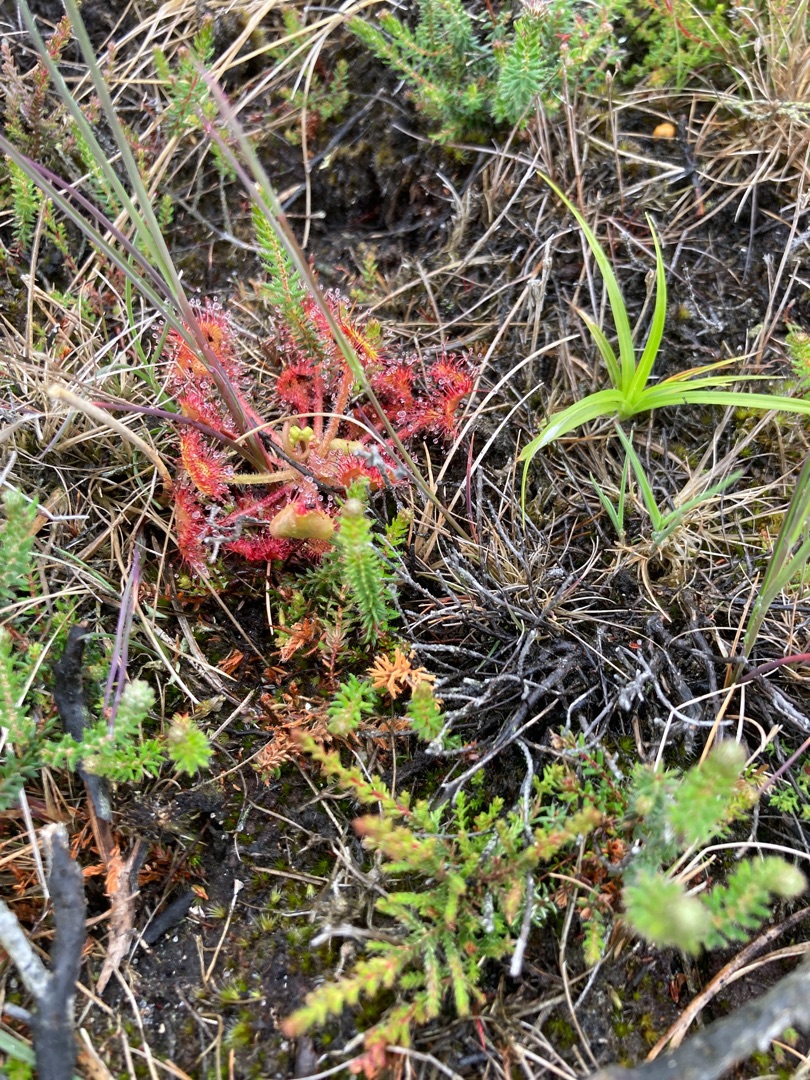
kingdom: Plantae
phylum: Tracheophyta
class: Magnoliopsida
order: Caryophyllales
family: Droseraceae
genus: Drosera
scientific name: Drosera rotundifolia
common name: Rundbladet soldug
